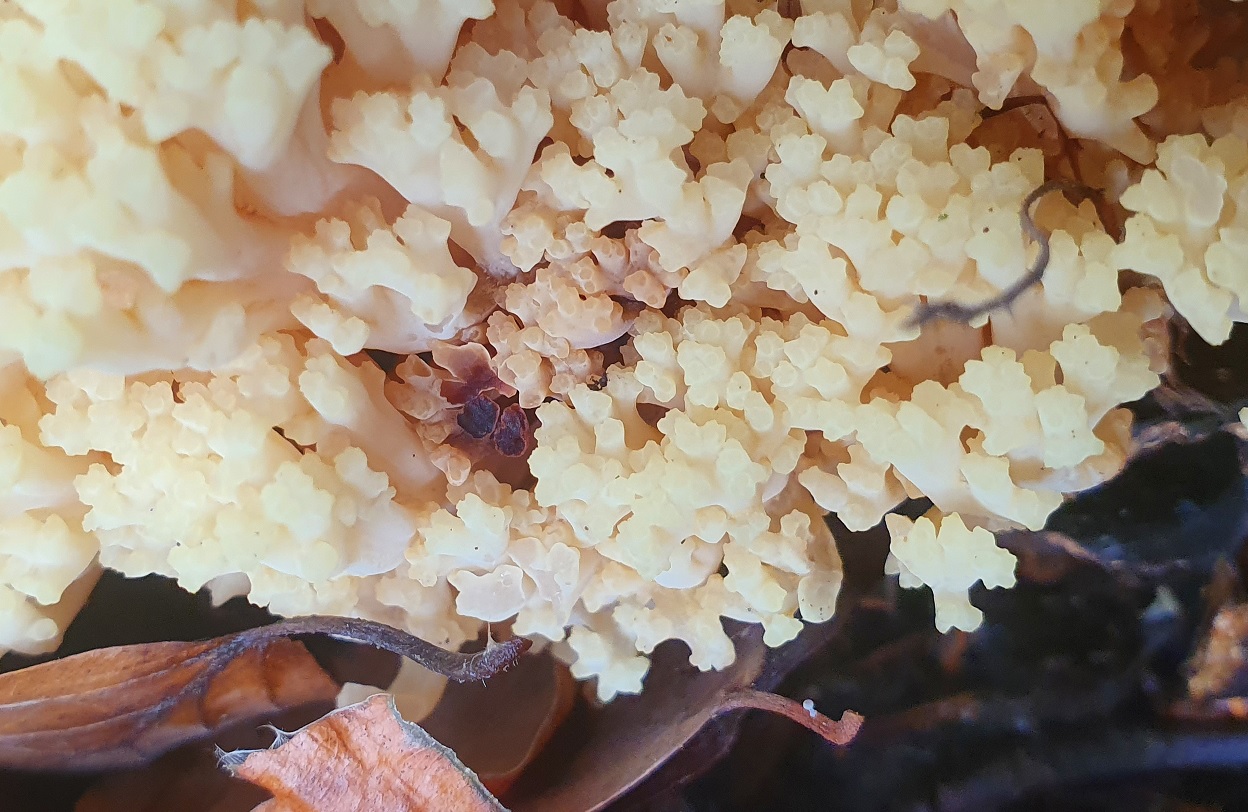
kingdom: Fungi
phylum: Basidiomycota
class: Agaricomycetes
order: Gomphales
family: Gomphaceae
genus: Ramaria
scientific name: Ramaria sanguinea
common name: blodplettet koralsvamp
